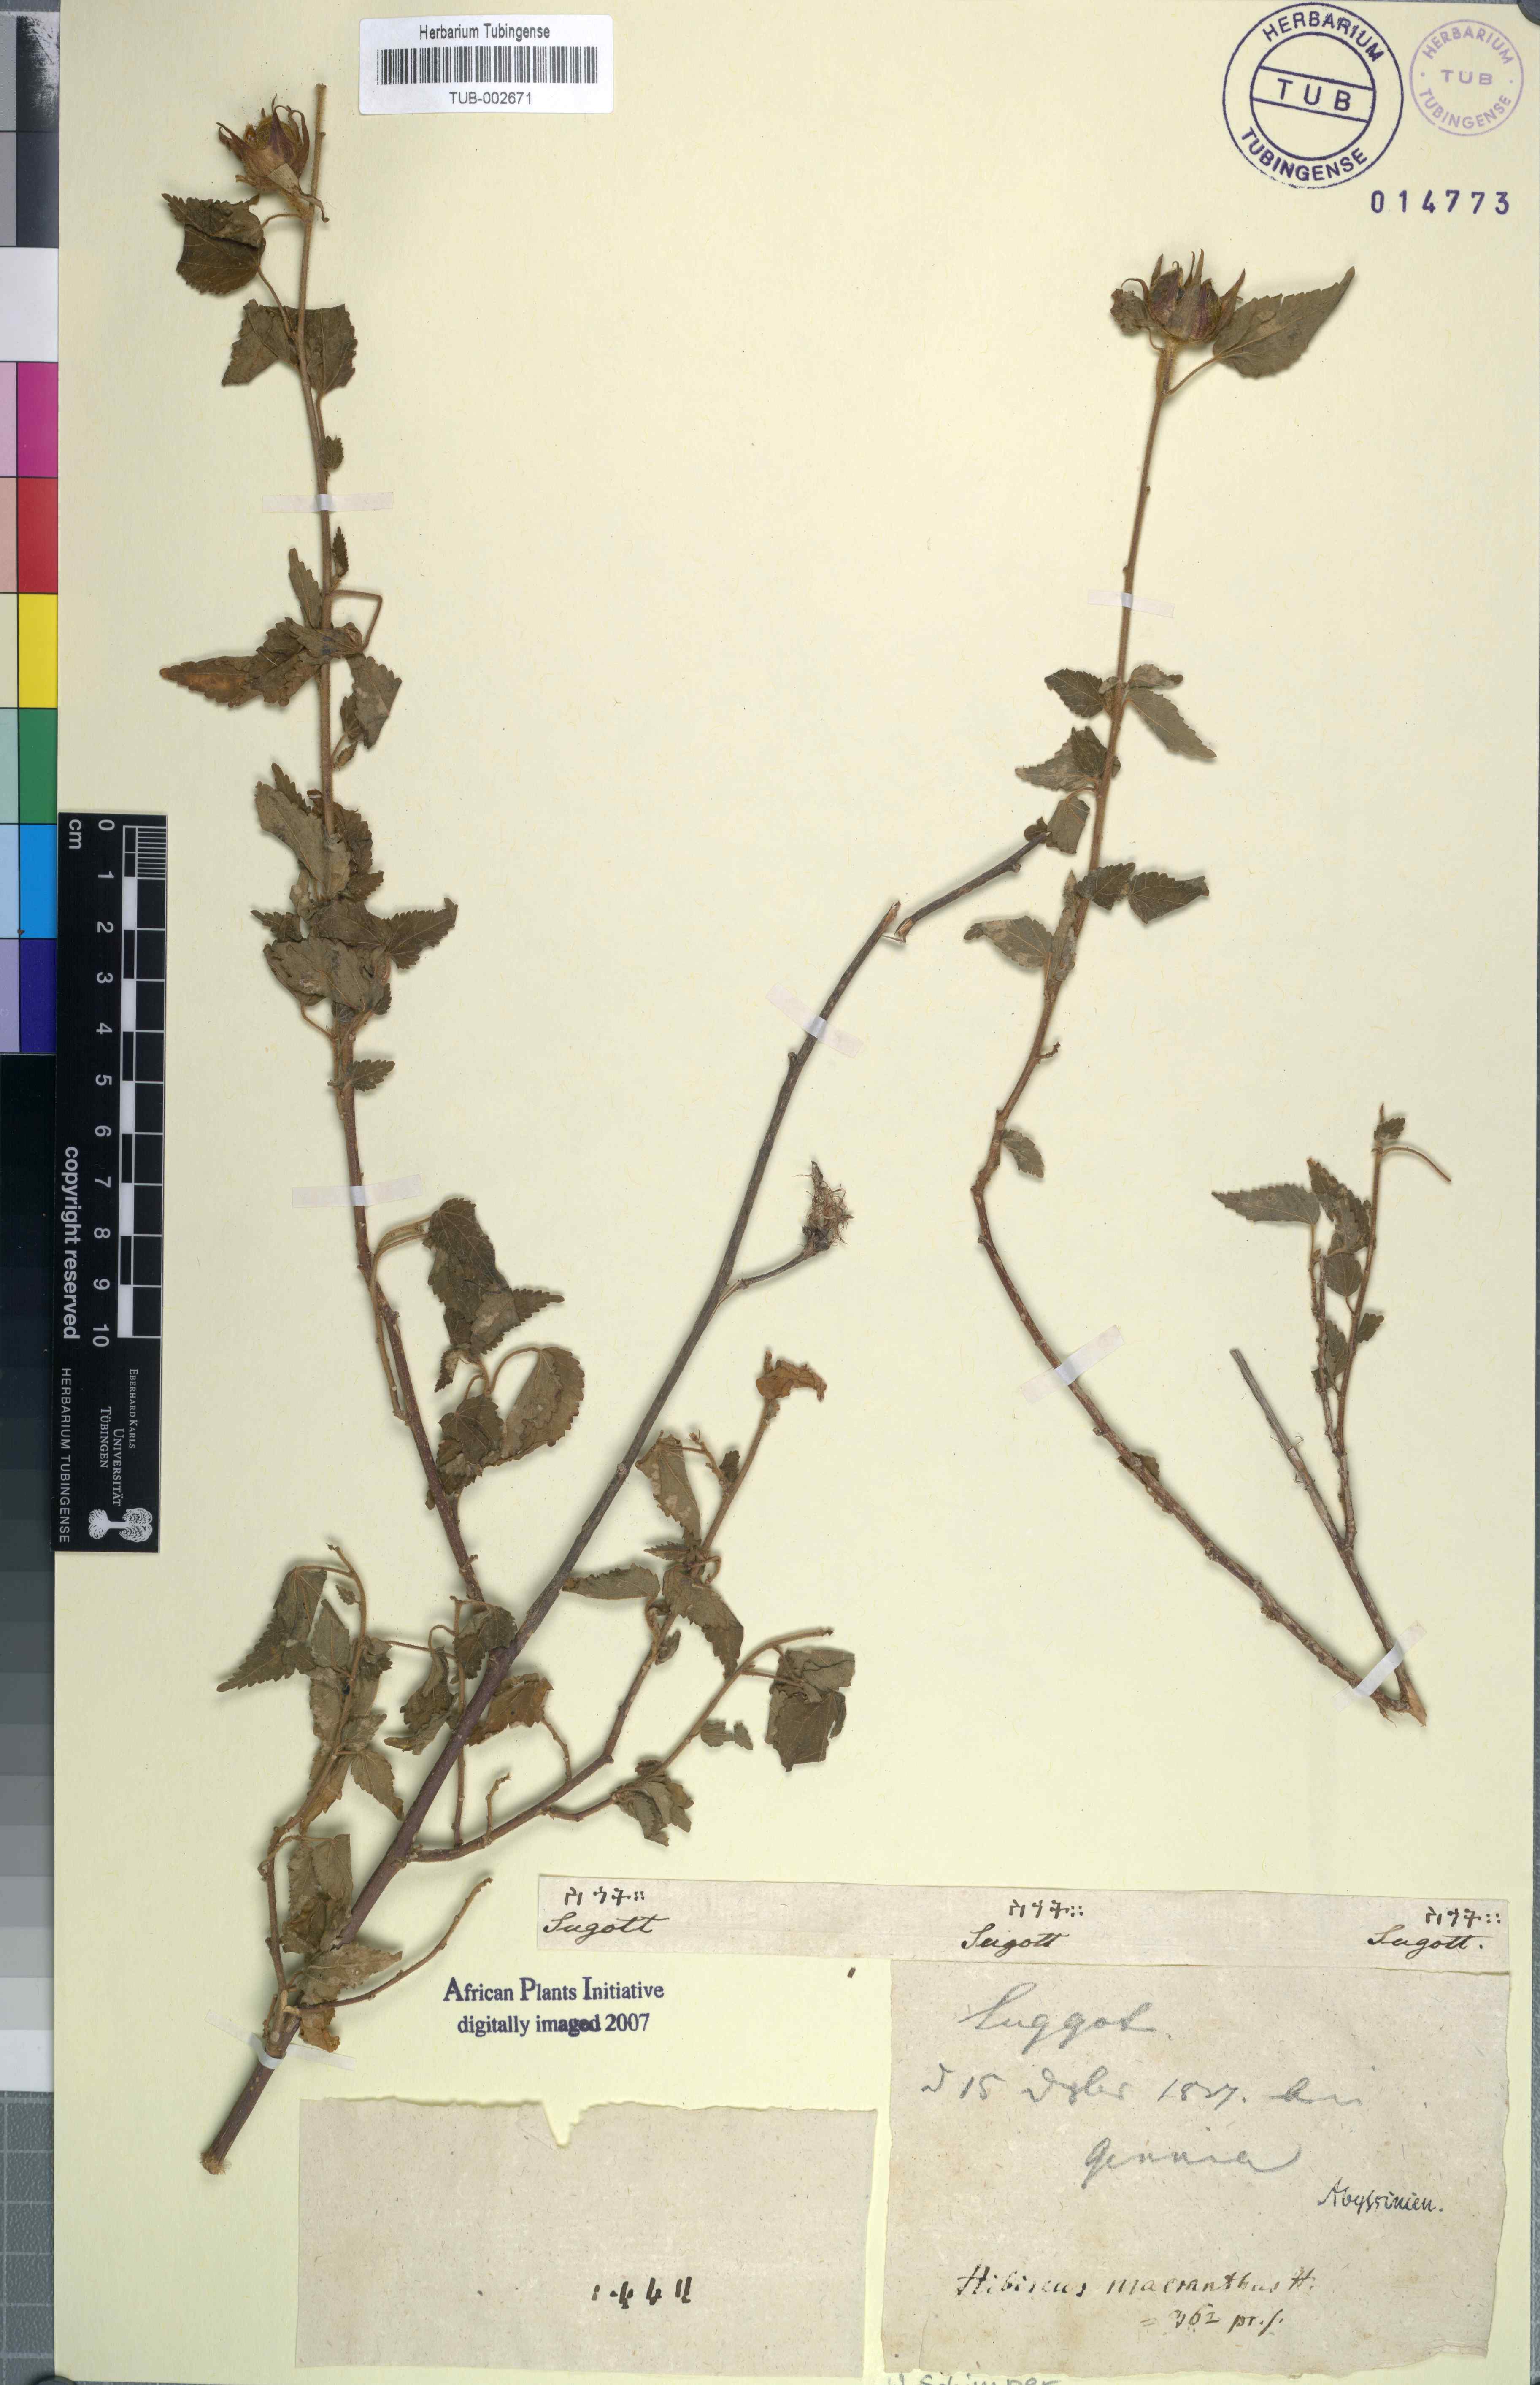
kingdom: Plantae
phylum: Tracheophyta
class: Magnoliopsida
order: Malvales
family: Malvaceae
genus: Hibiscus
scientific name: Hibiscus lunariifolius
